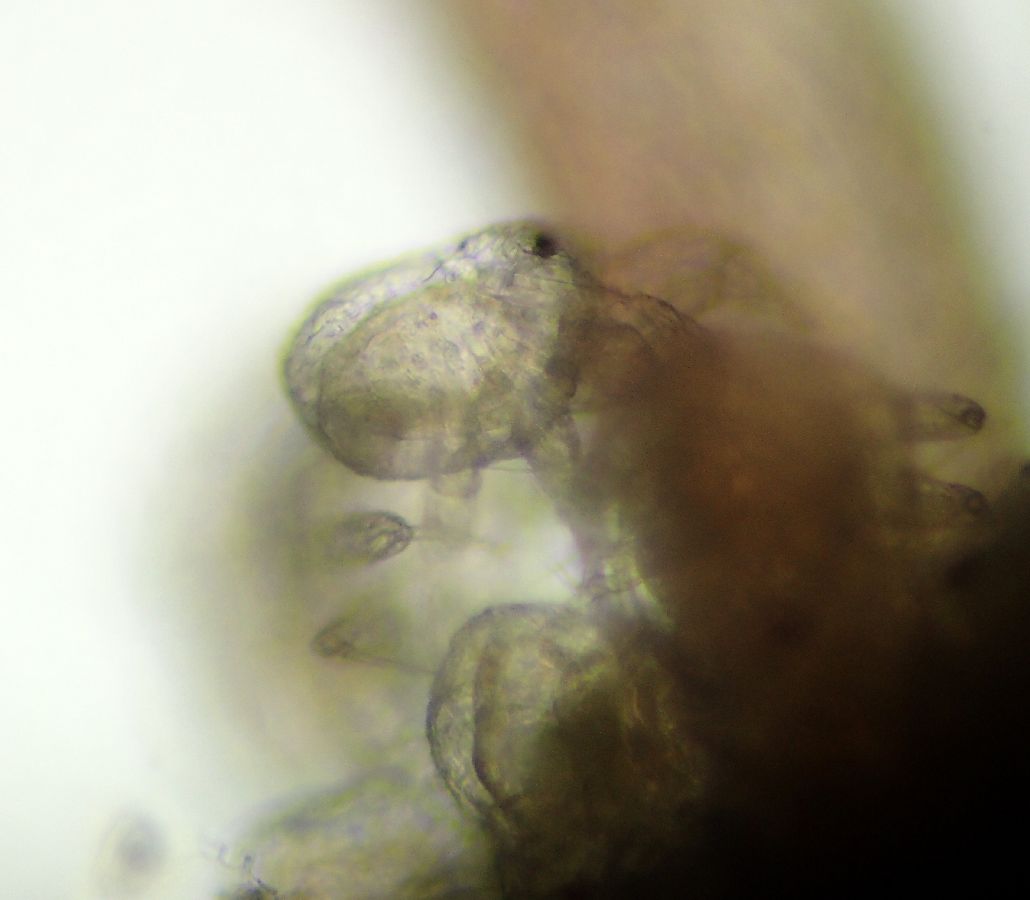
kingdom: Animalia
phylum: Arthropoda
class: Pycnogonida
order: Pantopoda
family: Nymphonidae
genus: Nymphon
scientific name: Nymphon longimanum
